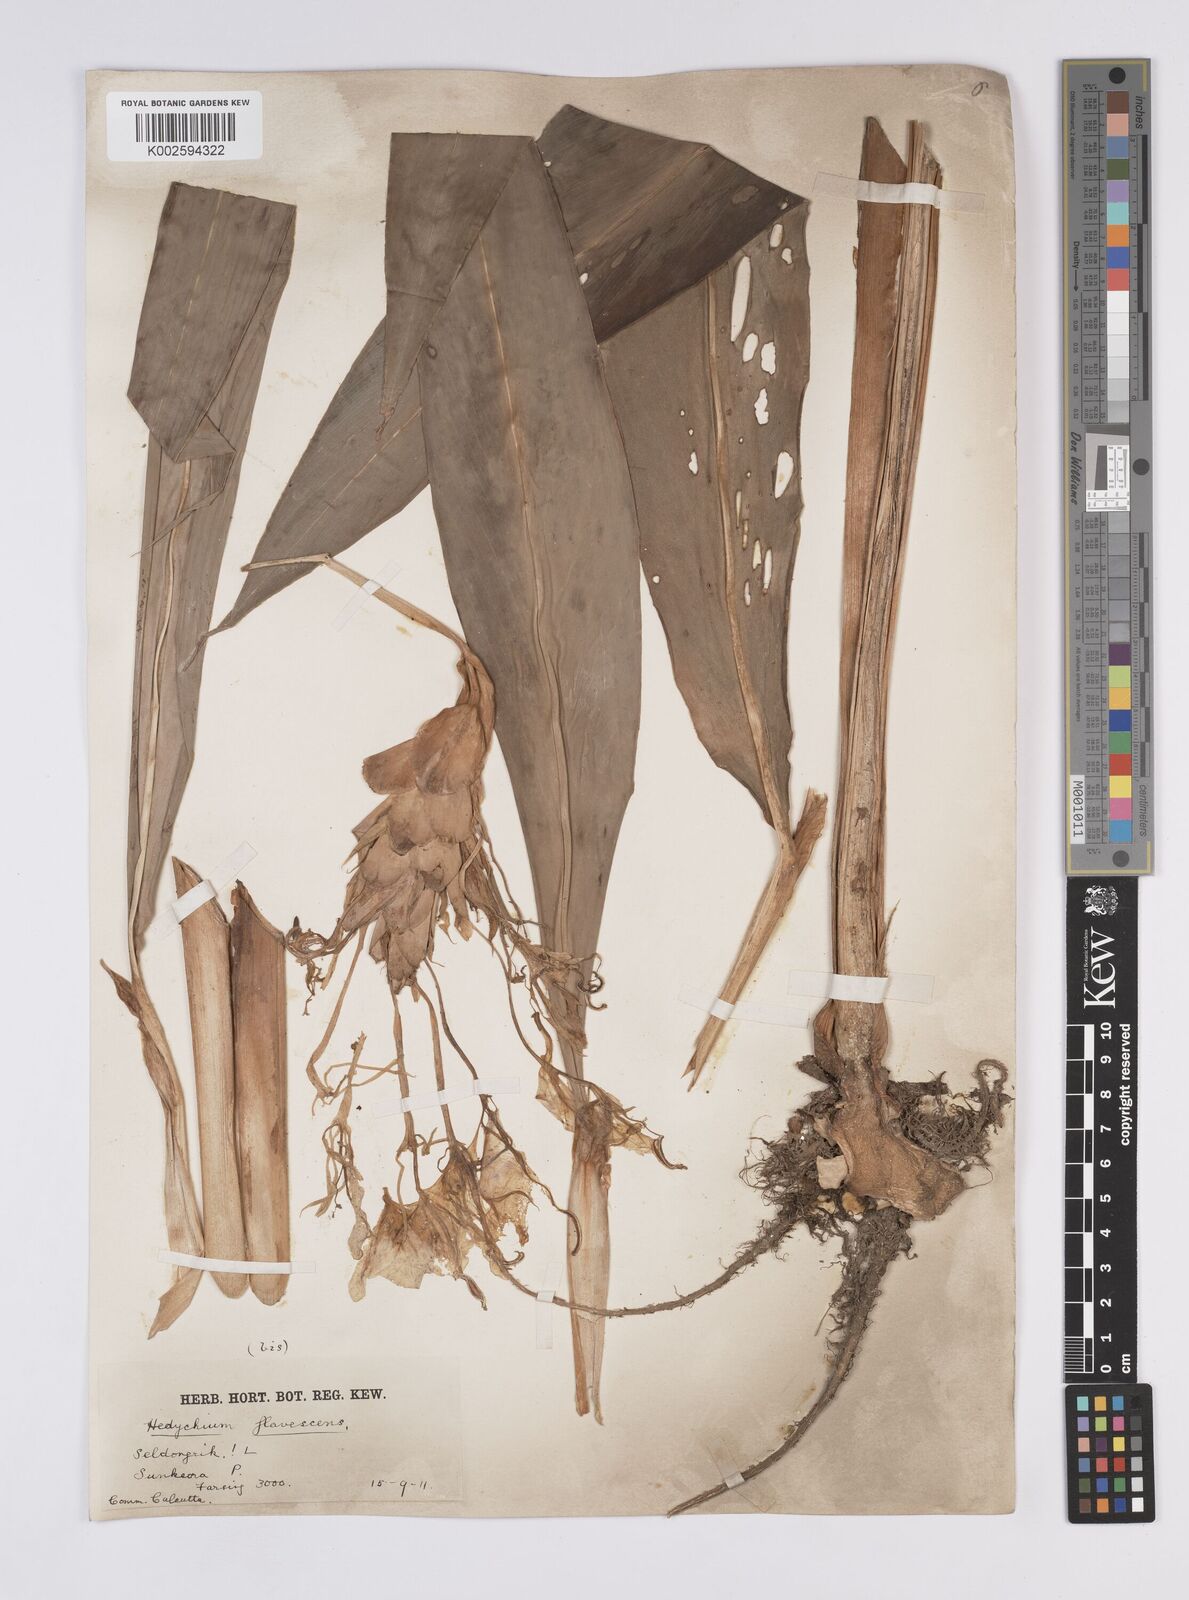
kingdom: Plantae
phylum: Tracheophyta
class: Liliopsida
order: Zingiberales
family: Zingiberaceae
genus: Hedychium
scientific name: Hedychium
